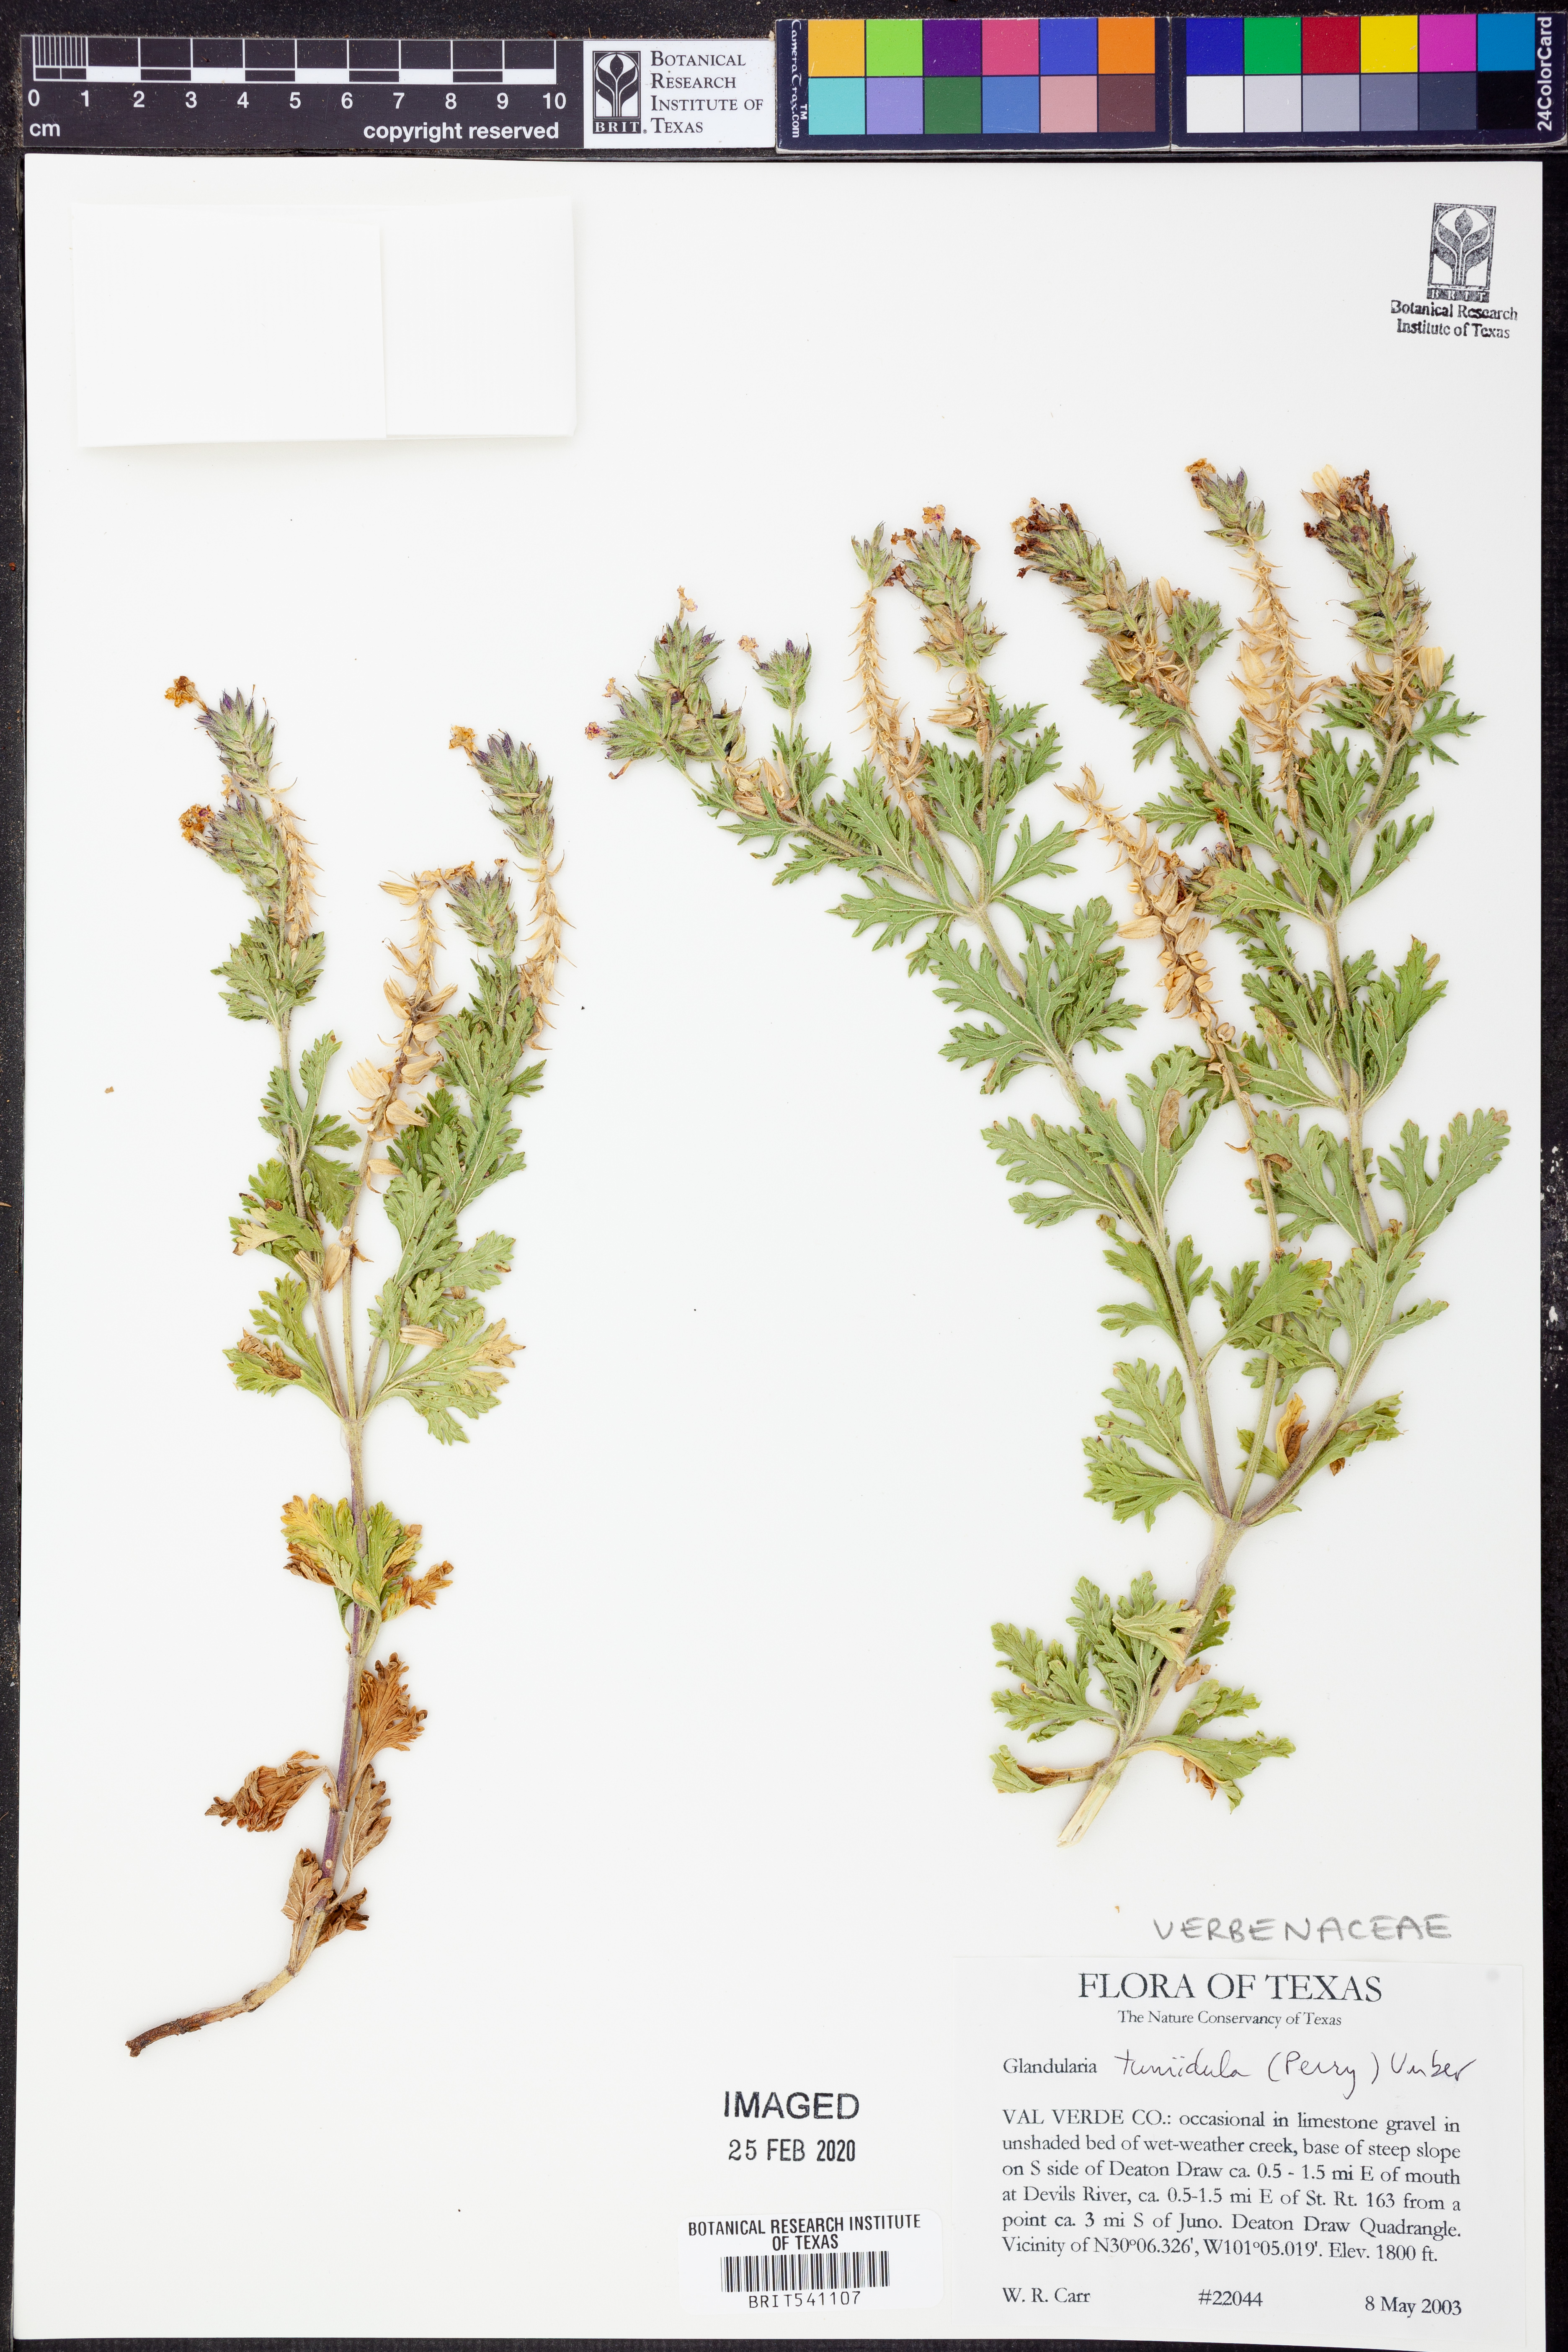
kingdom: Plantae
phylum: Tracheophyta
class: Magnoliopsida
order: Lamiales
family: Verbenaceae
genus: Verbena
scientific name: Verbena tumidula
